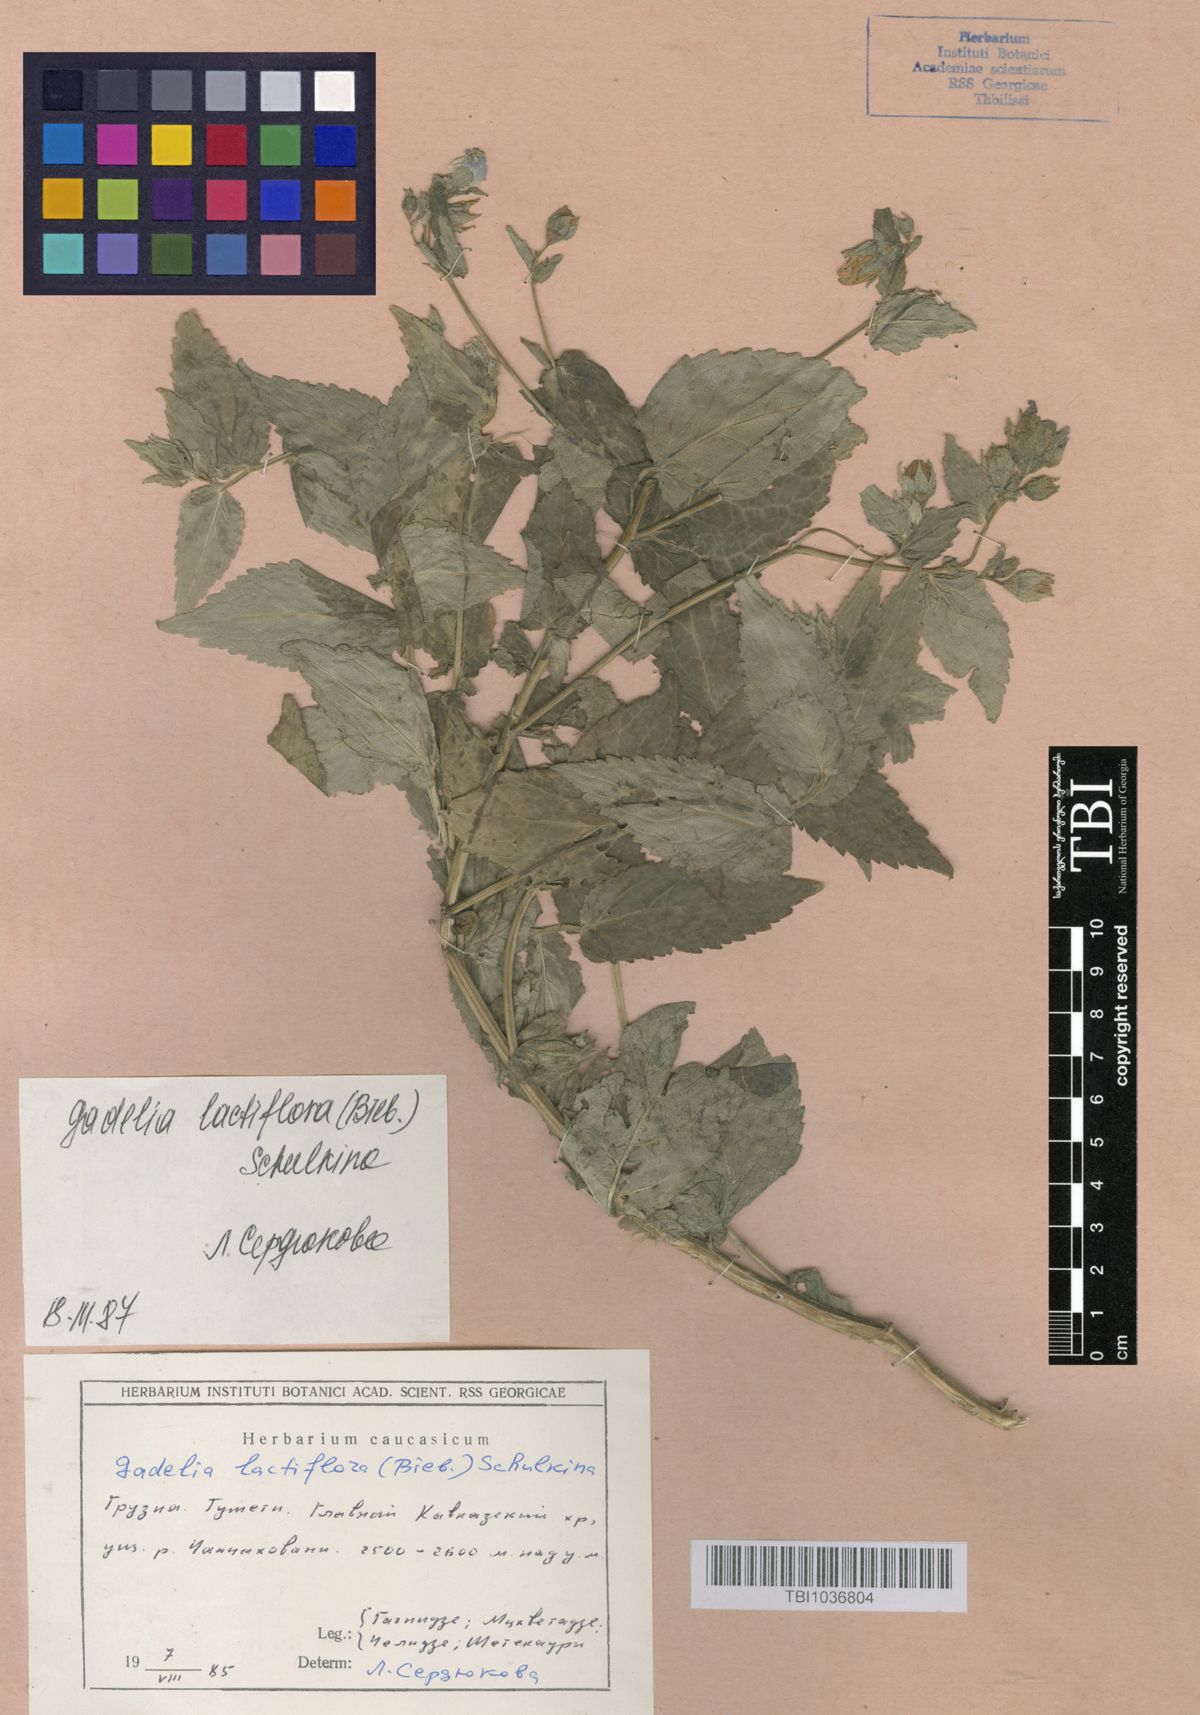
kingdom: Plantae
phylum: Tracheophyta
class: Magnoliopsida
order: Asterales
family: Campanulaceae
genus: Campanula
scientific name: Campanula lactiflora
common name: Milky bellflower
